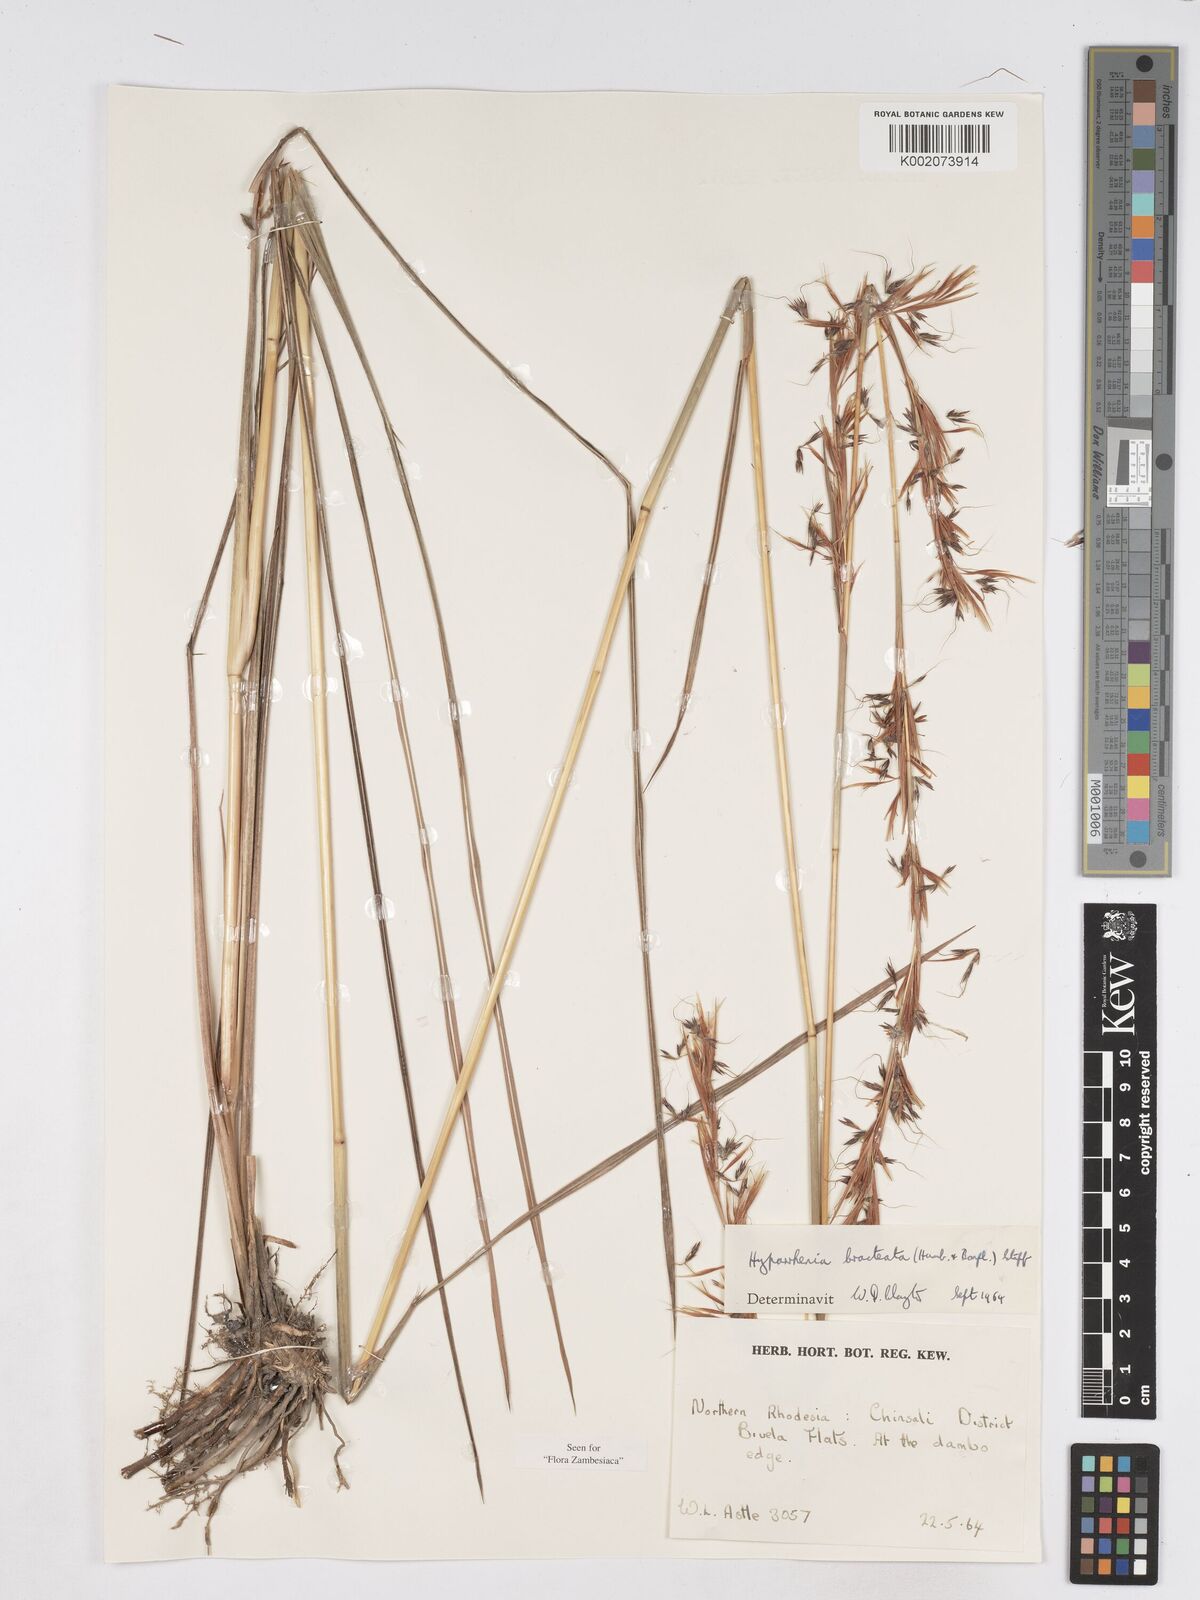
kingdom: Plantae
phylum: Tracheophyta
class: Liliopsida
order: Poales
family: Poaceae
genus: Hyparrhenia
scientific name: Hyparrhenia bracteata
